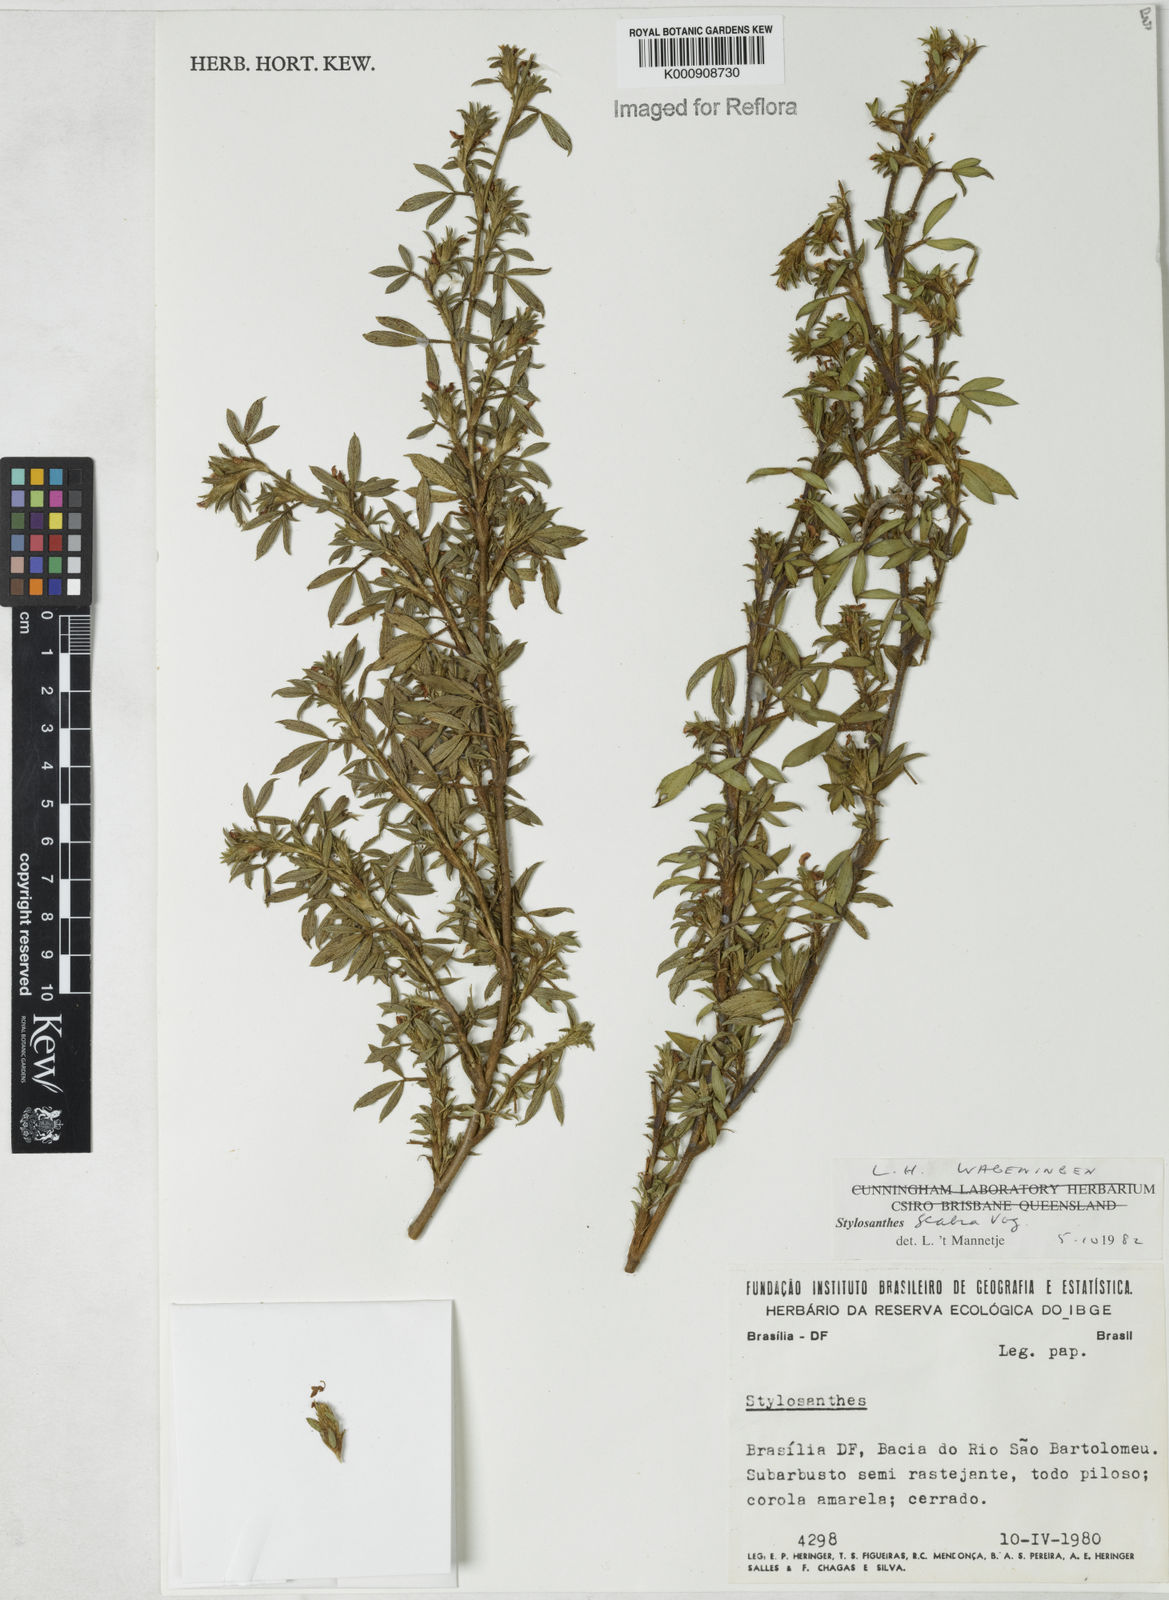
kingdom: Plantae
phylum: Tracheophyta
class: Magnoliopsida
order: Fabales
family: Fabaceae
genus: Stylosanthes
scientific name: Stylosanthes scabra
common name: Pencilflower
